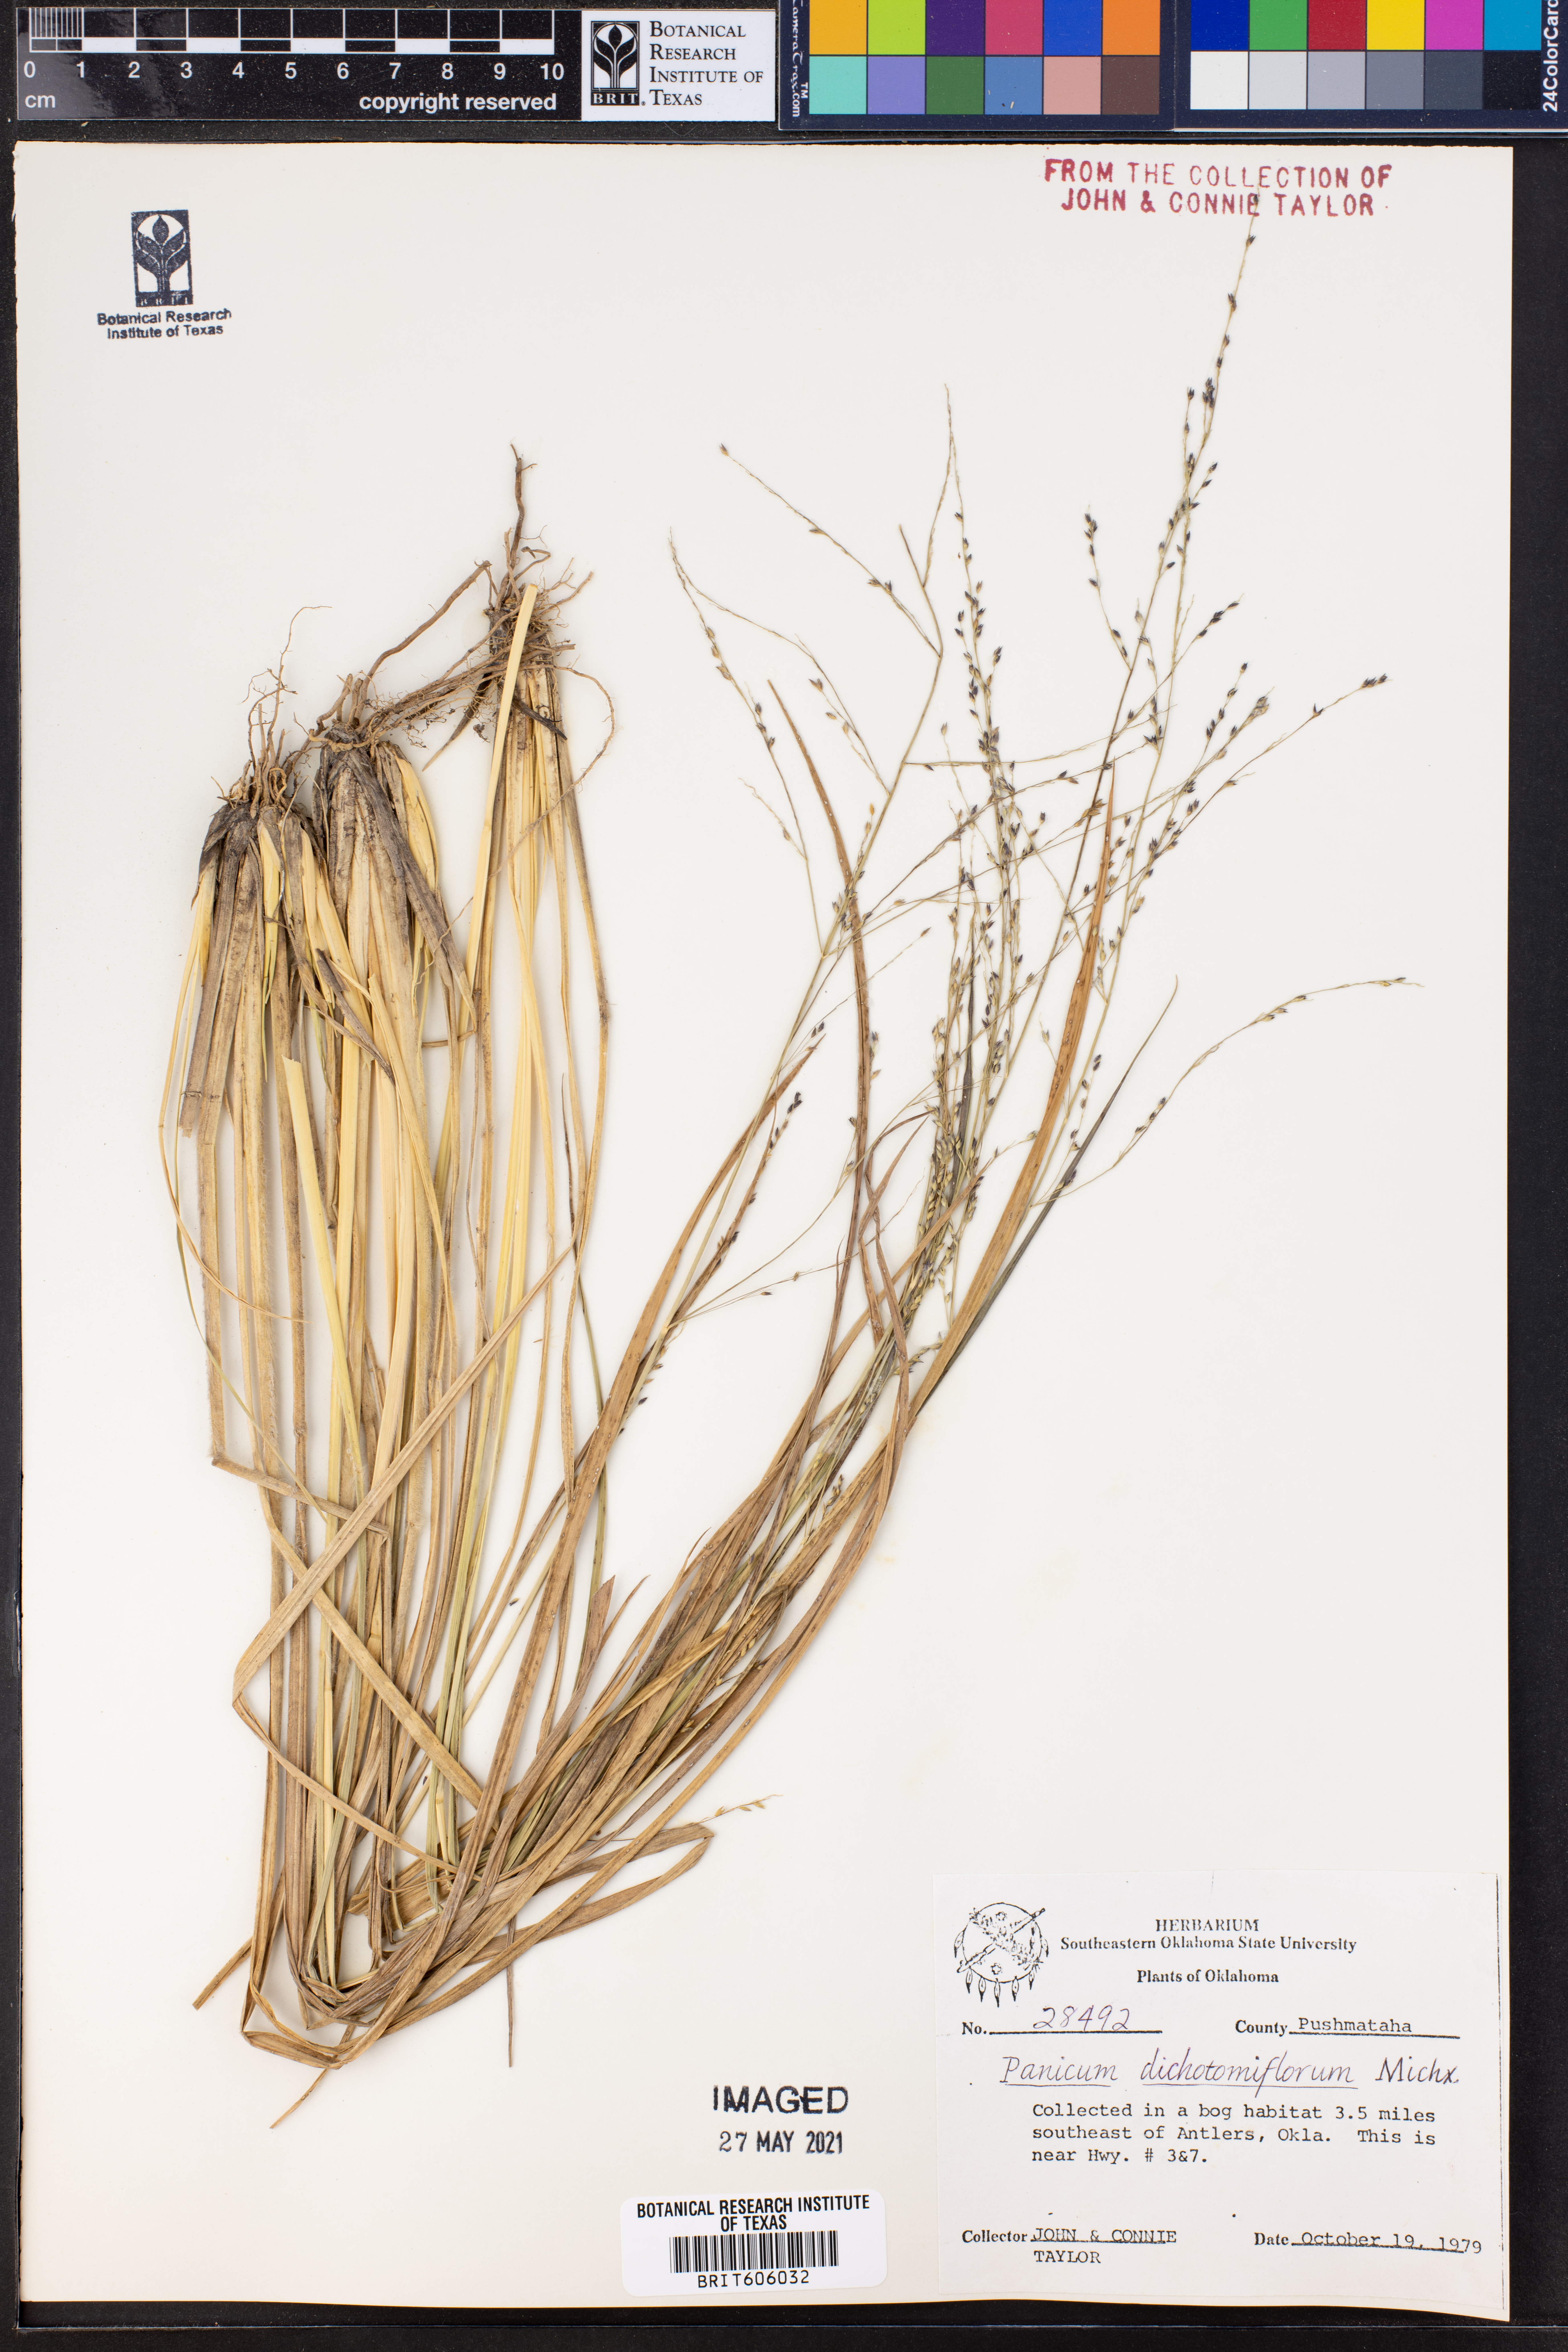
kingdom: Plantae
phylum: Tracheophyta
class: Liliopsida
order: Poales
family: Poaceae
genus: Panicum
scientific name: Panicum dichotomiflorum
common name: Autumn millet
